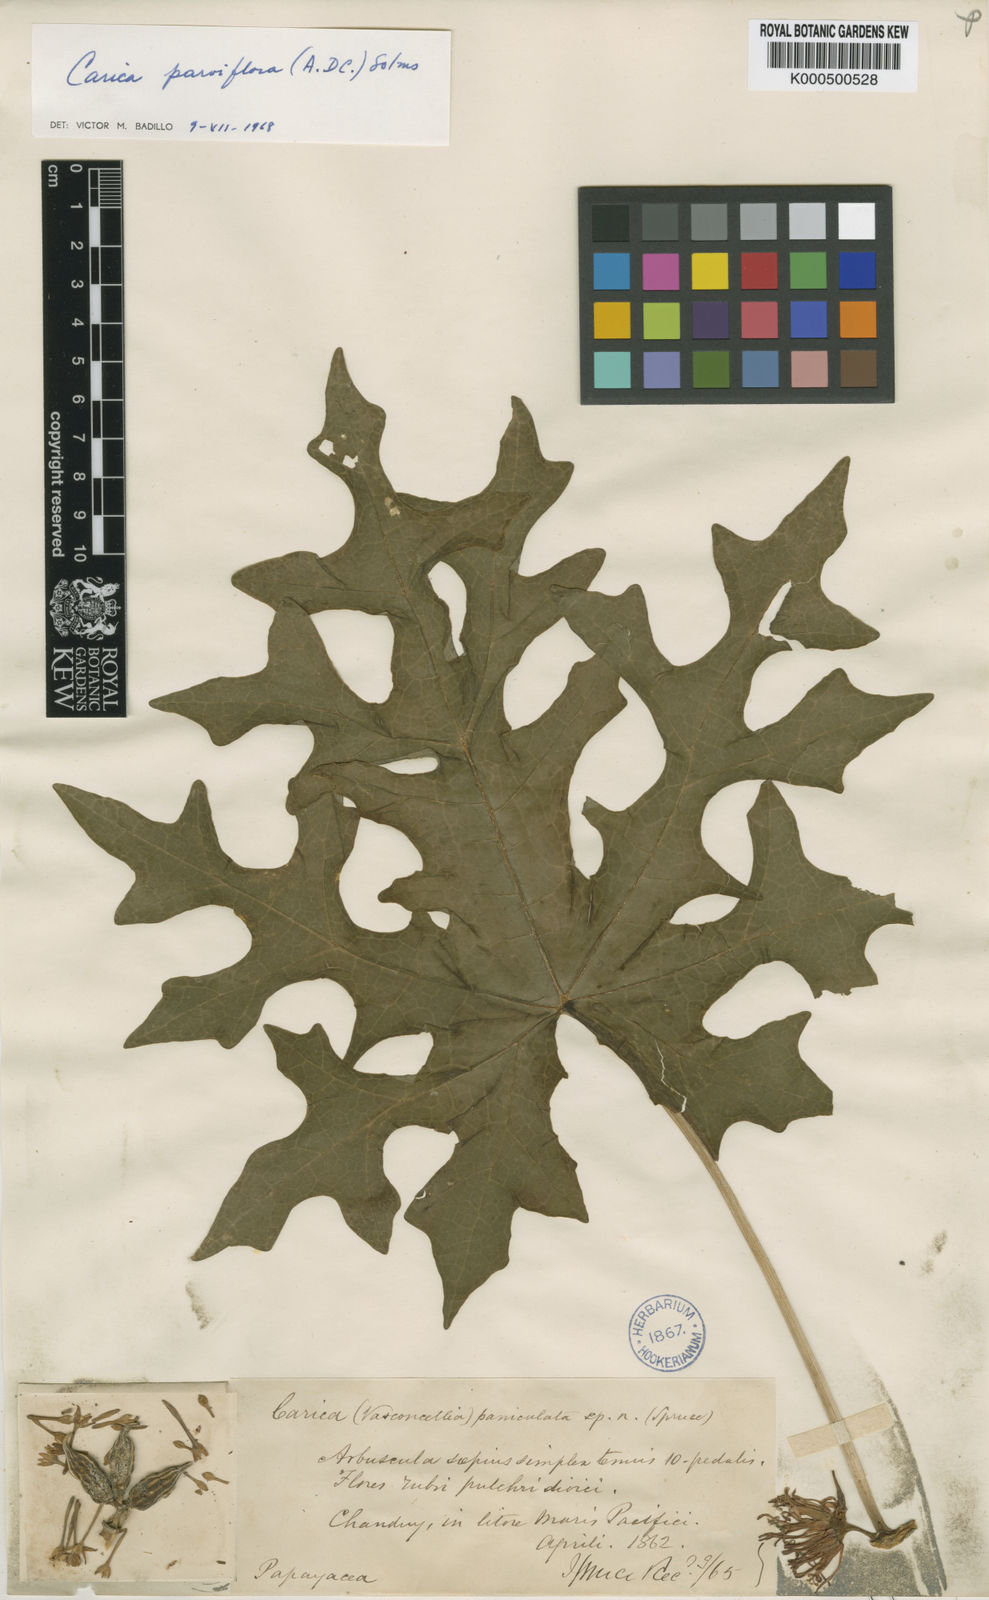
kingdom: Plantae
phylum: Tracheophyta
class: Magnoliopsida
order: Brassicales
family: Caricaceae
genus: Vasconcellea
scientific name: Vasconcellea parviflora
